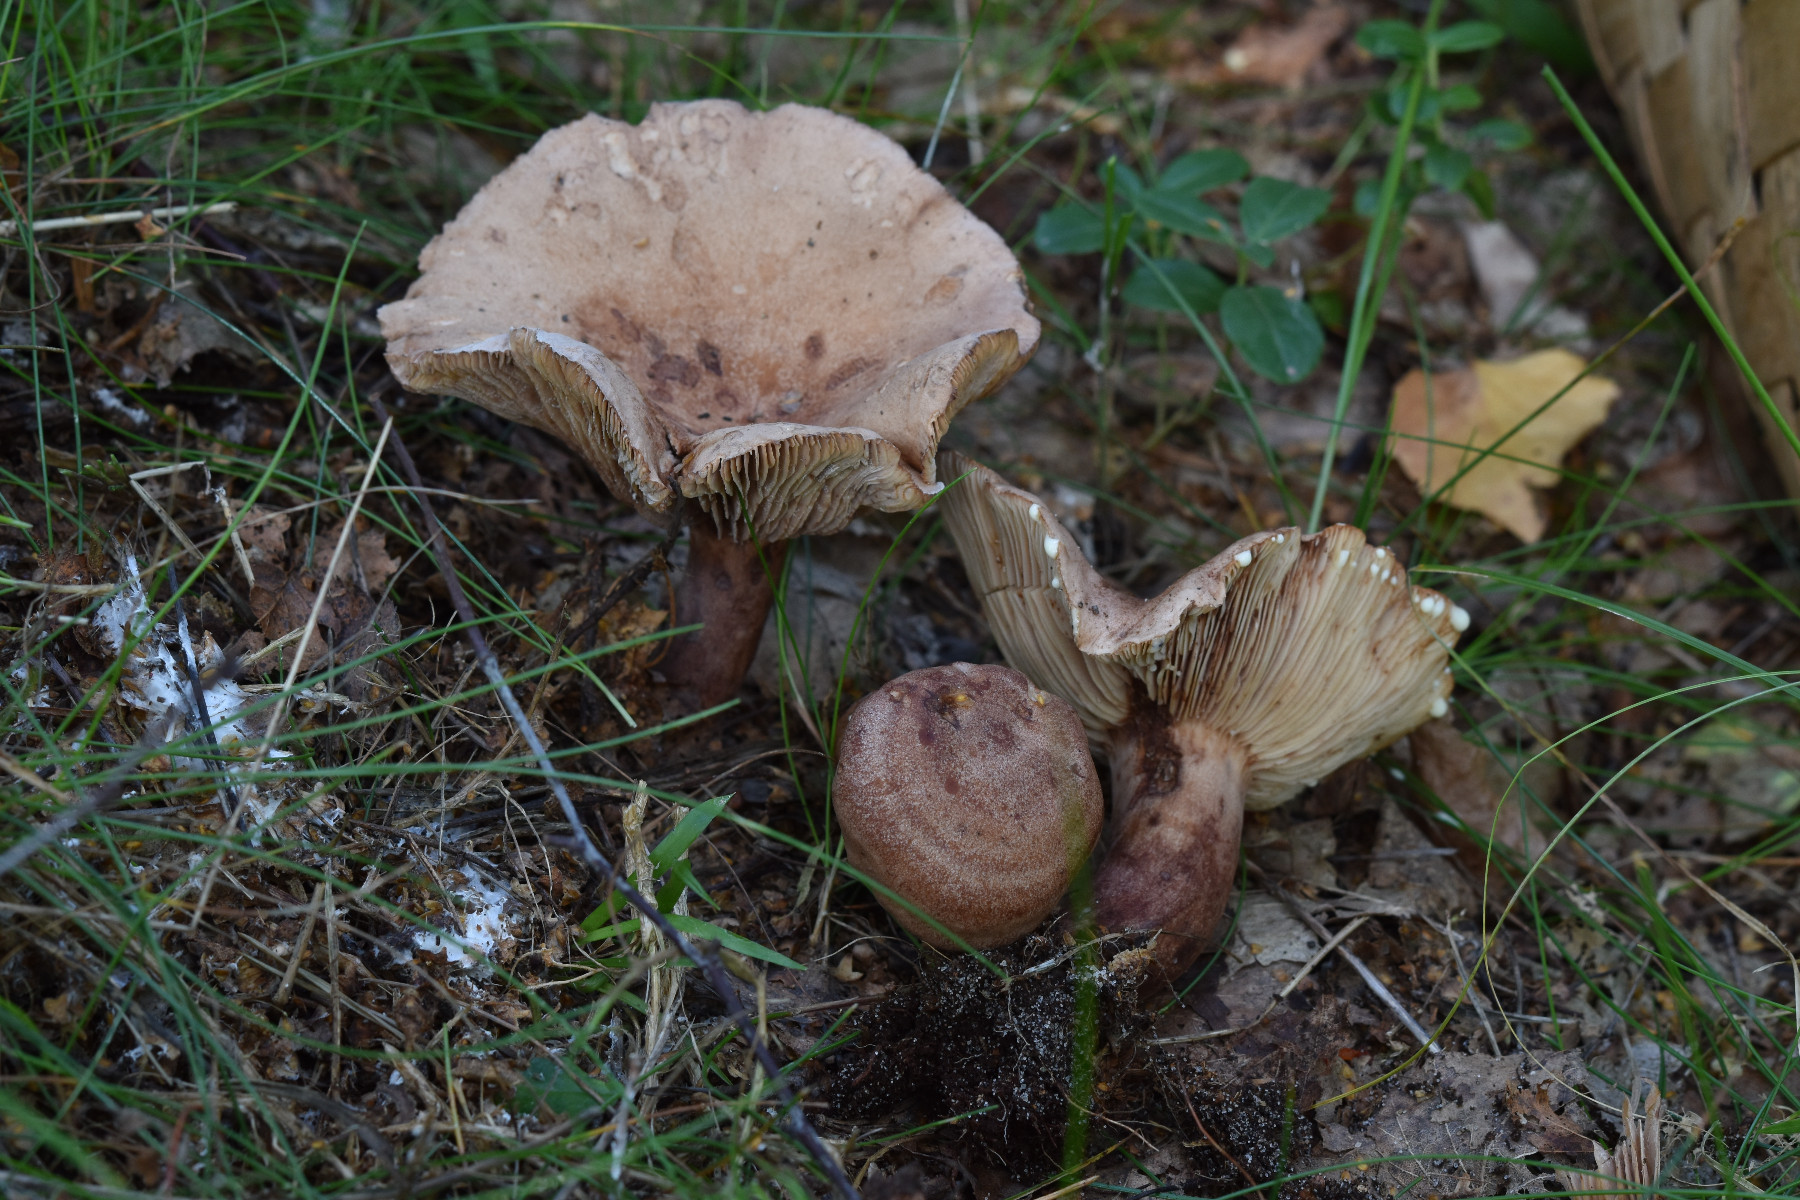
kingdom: Fungi
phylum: Basidiomycota
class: Agaricomycetes
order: Russulales
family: Russulaceae
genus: Lactarius
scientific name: Lactarius quietus
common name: ege-mælkehat
